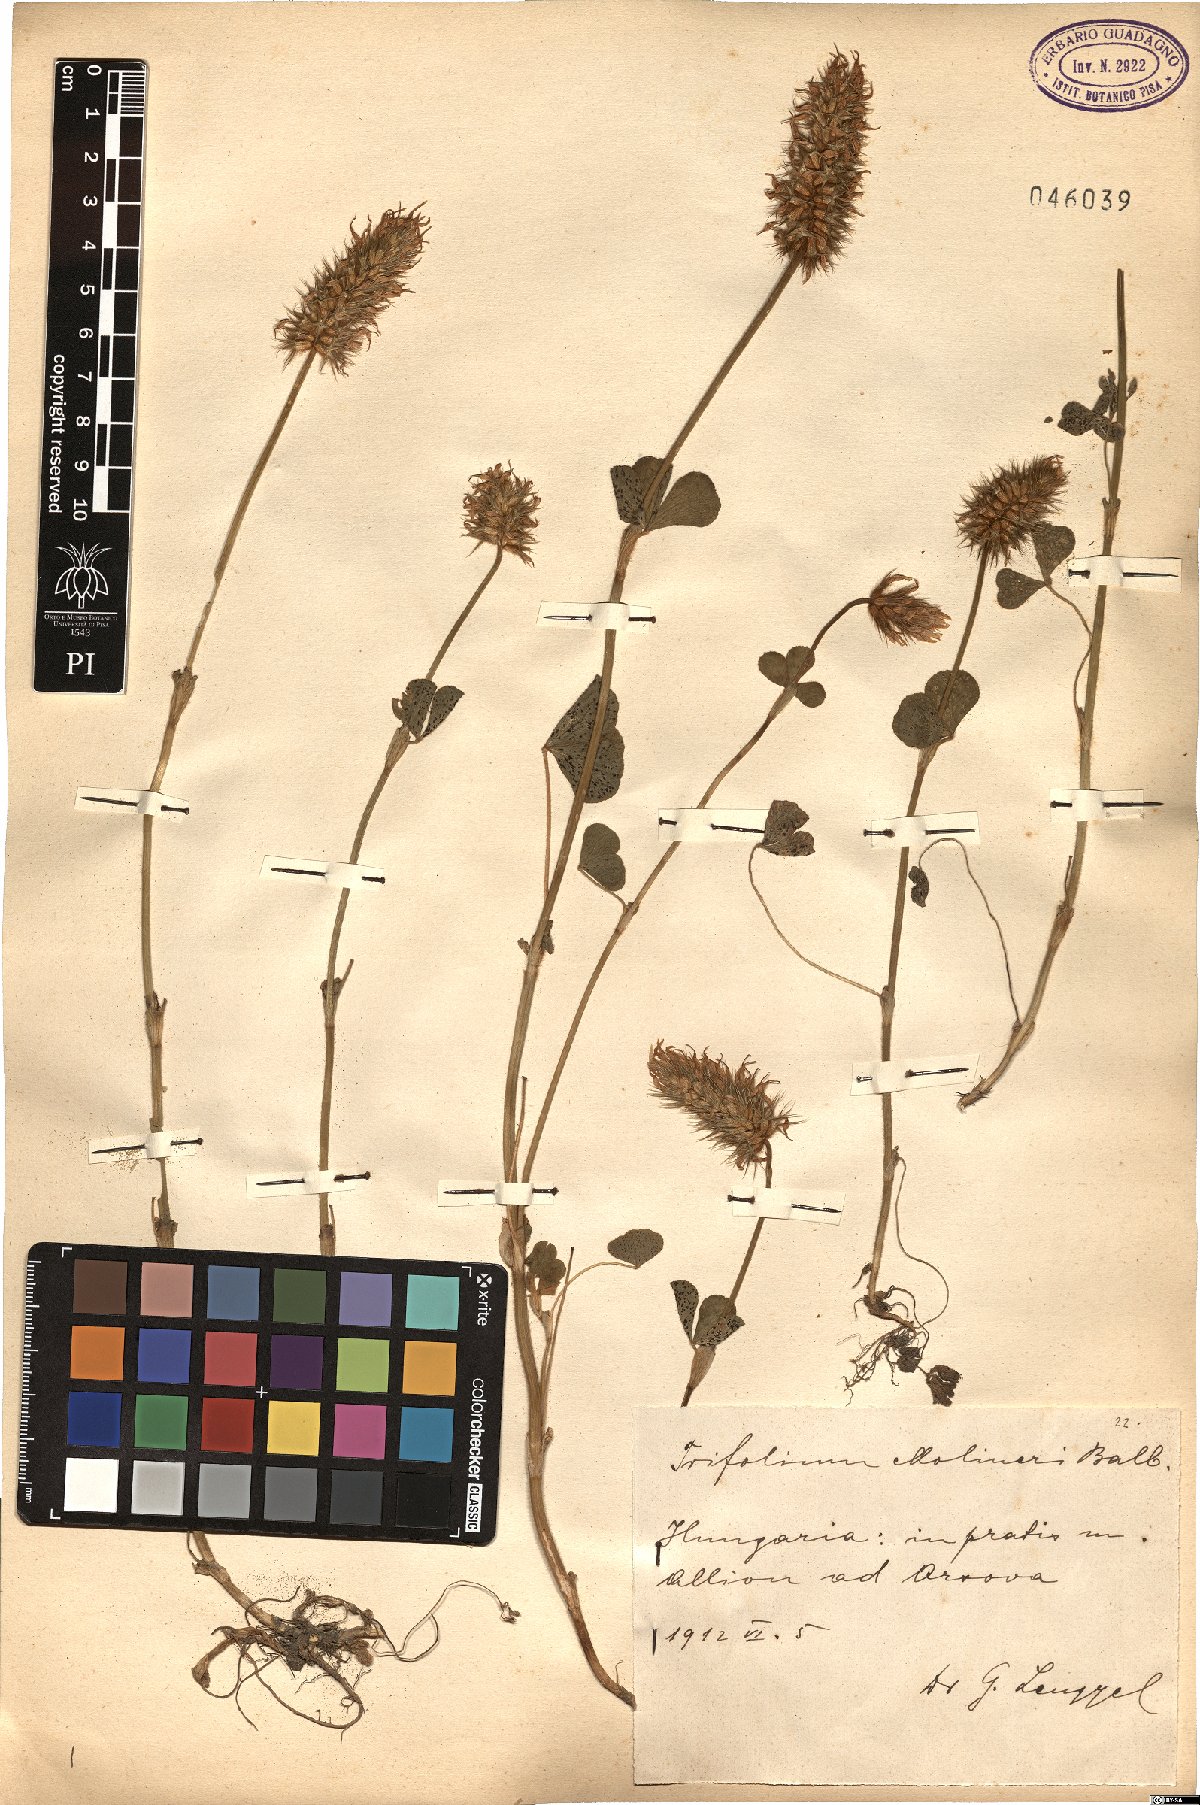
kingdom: Plantae
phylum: Tracheophyta
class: Magnoliopsida
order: Fabales
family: Fabaceae
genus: Trifolium
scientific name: Trifolium incarnatum
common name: Crimson clover
